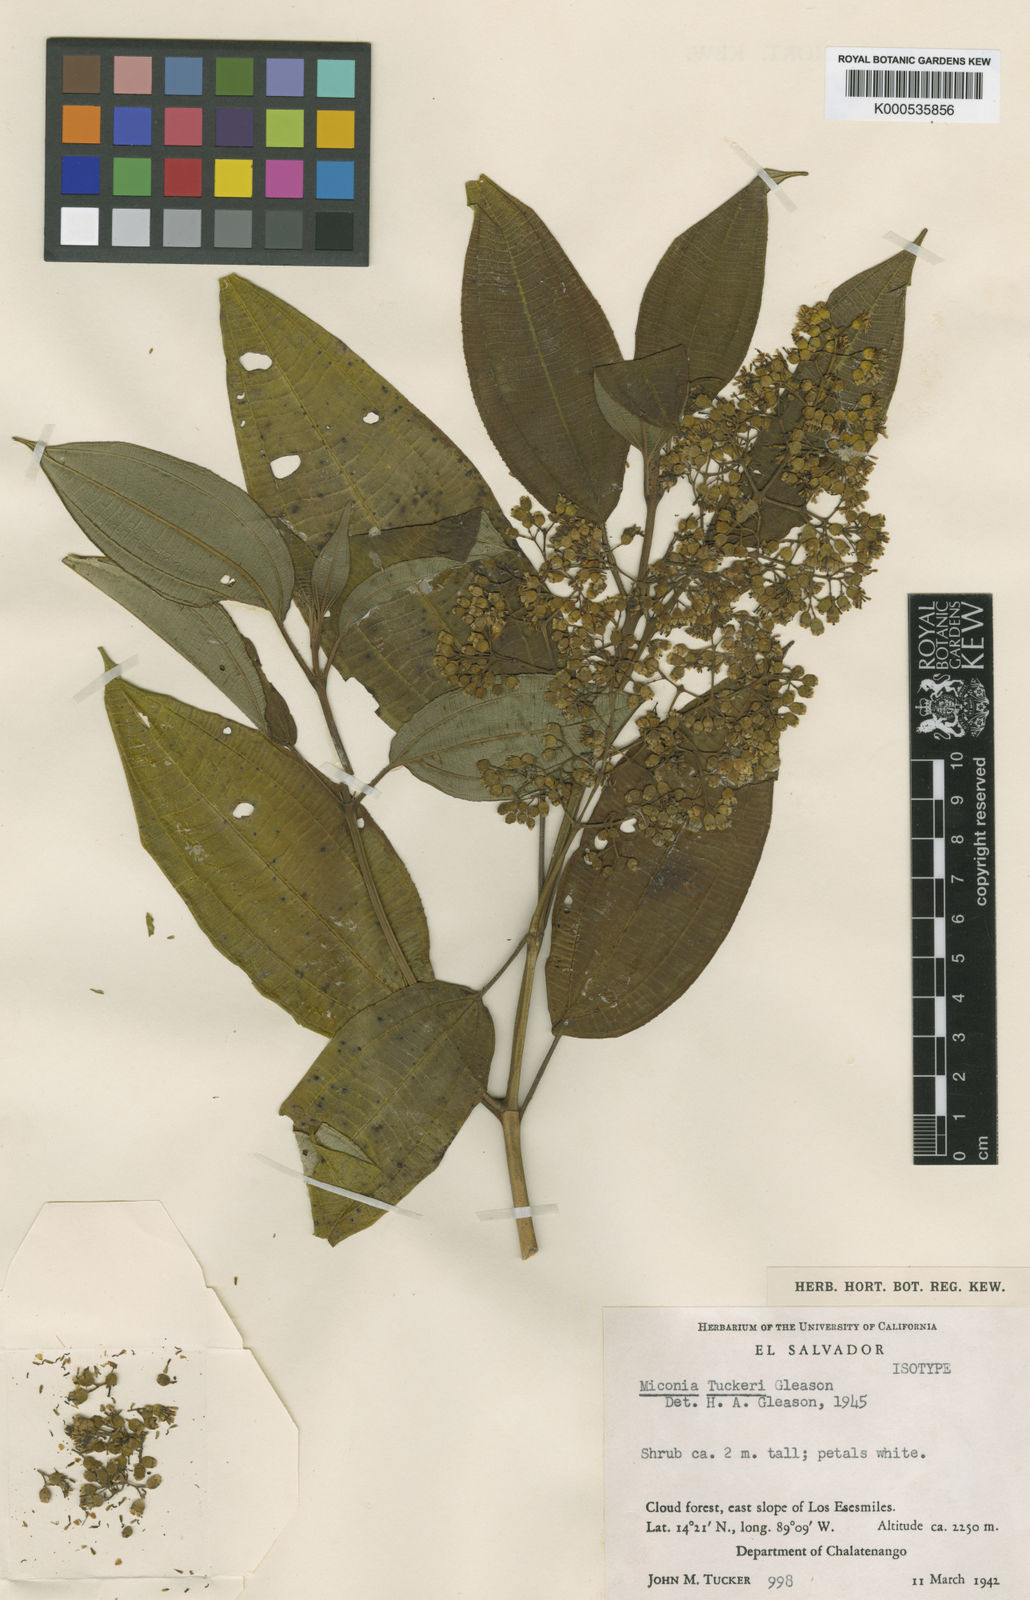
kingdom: Plantae
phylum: Tracheophyta
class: Magnoliopsida
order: Myrtales
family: Melastomataceae
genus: Miconia
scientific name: Miconia tuckeri
